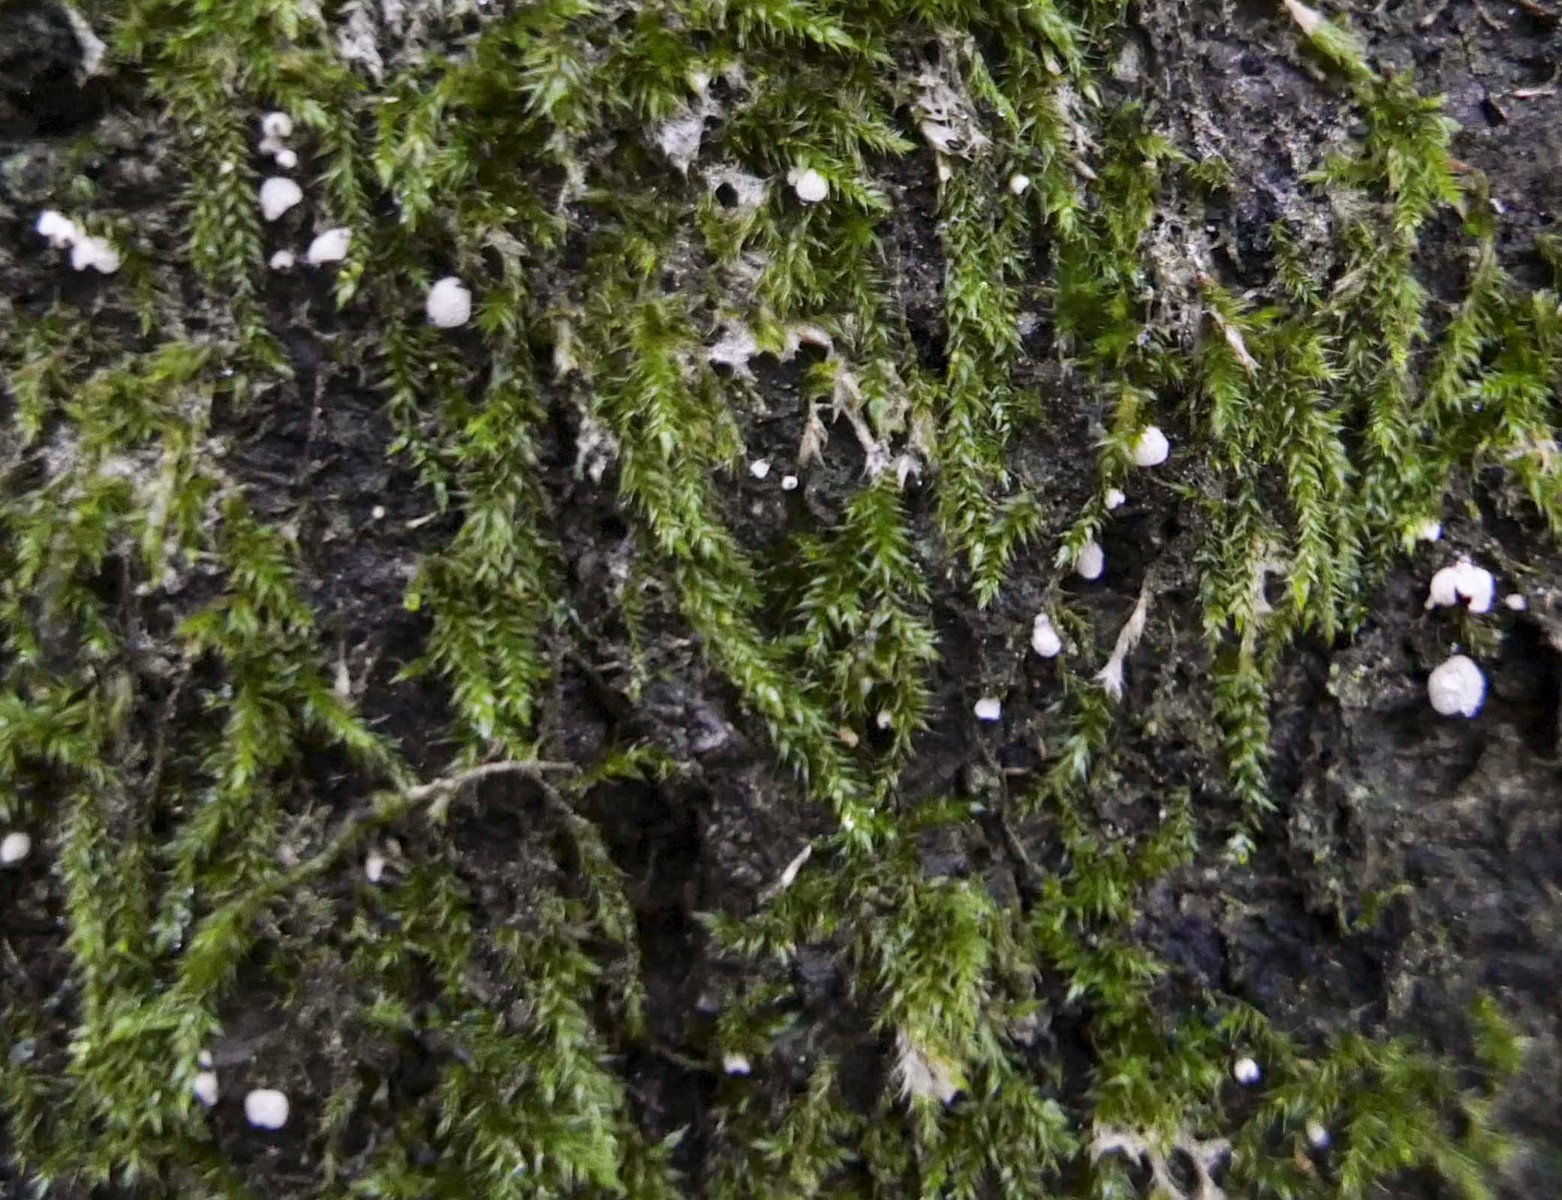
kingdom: Fungi
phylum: Basidiomycota
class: Agaricomycetes
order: Agaricales
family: Chromocyphellaceae
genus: Chromocyphella
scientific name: Chromocyphella muscicola
